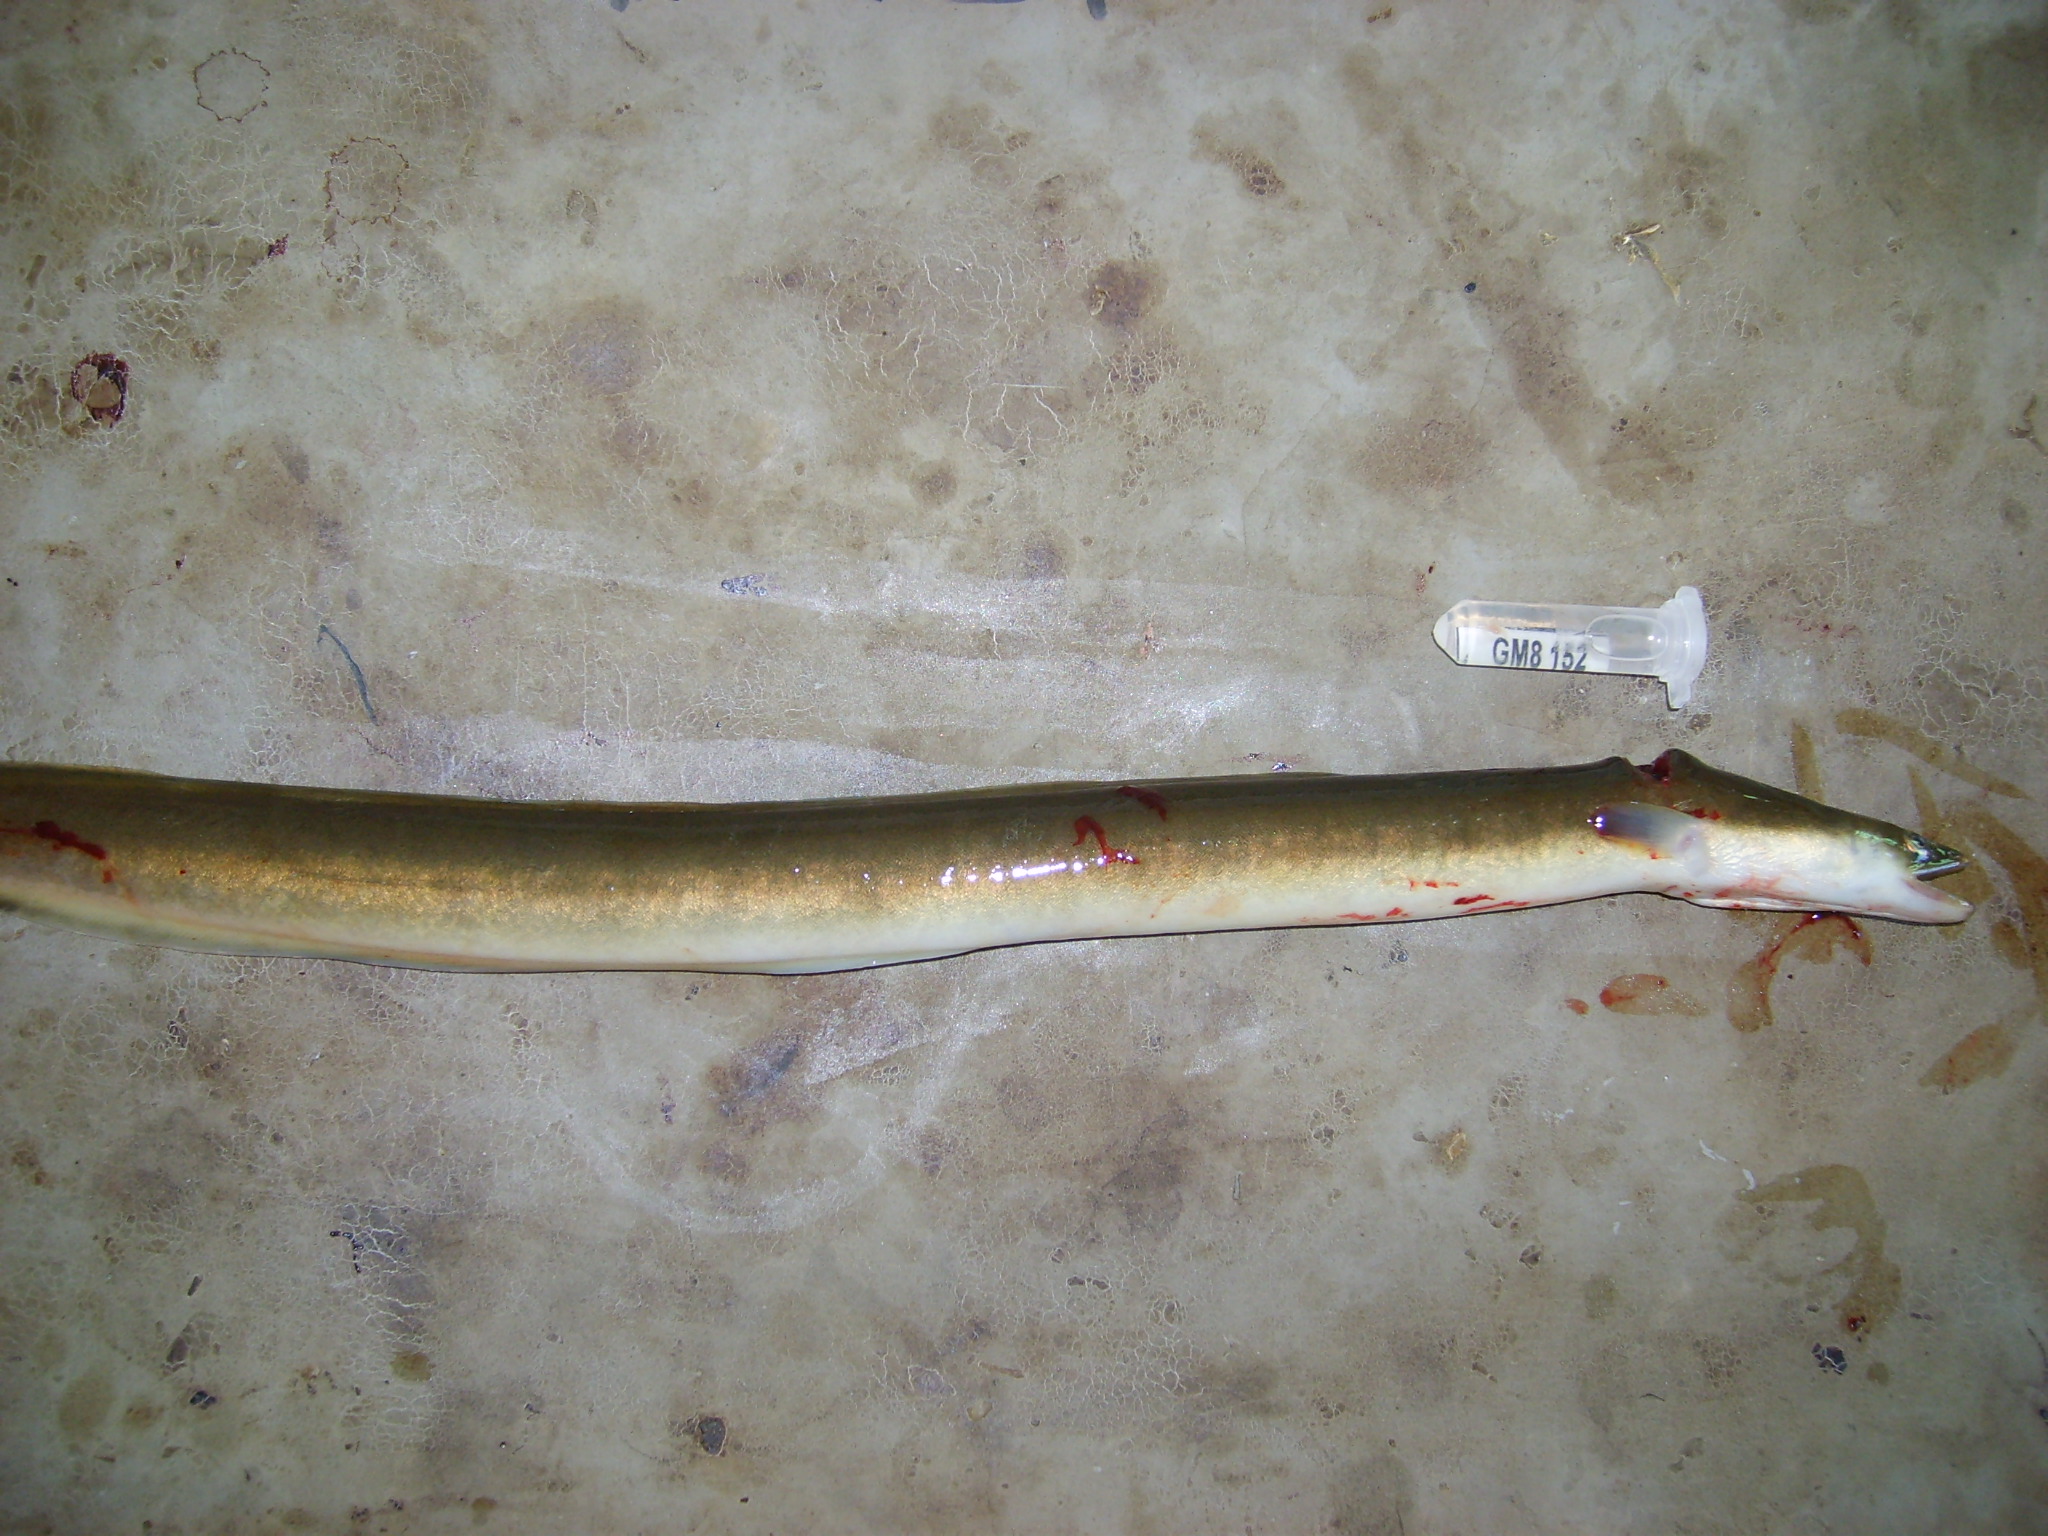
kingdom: Animalia
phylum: Chordata
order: Anguilliformes
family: Anguillidae
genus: Anguilla
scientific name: Anguilla mossambica
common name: African longfin eel
